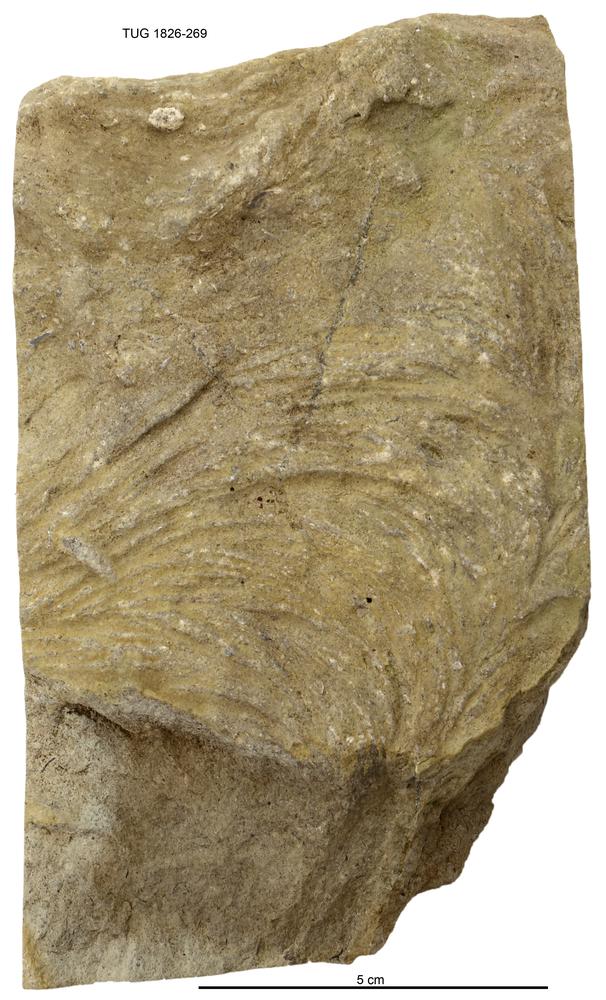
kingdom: Chromista
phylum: Ochrophyta
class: Phaeophyceae
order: Laminariales
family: Laminariaceae
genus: Postelsiopsis
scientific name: Postelsiopsis
